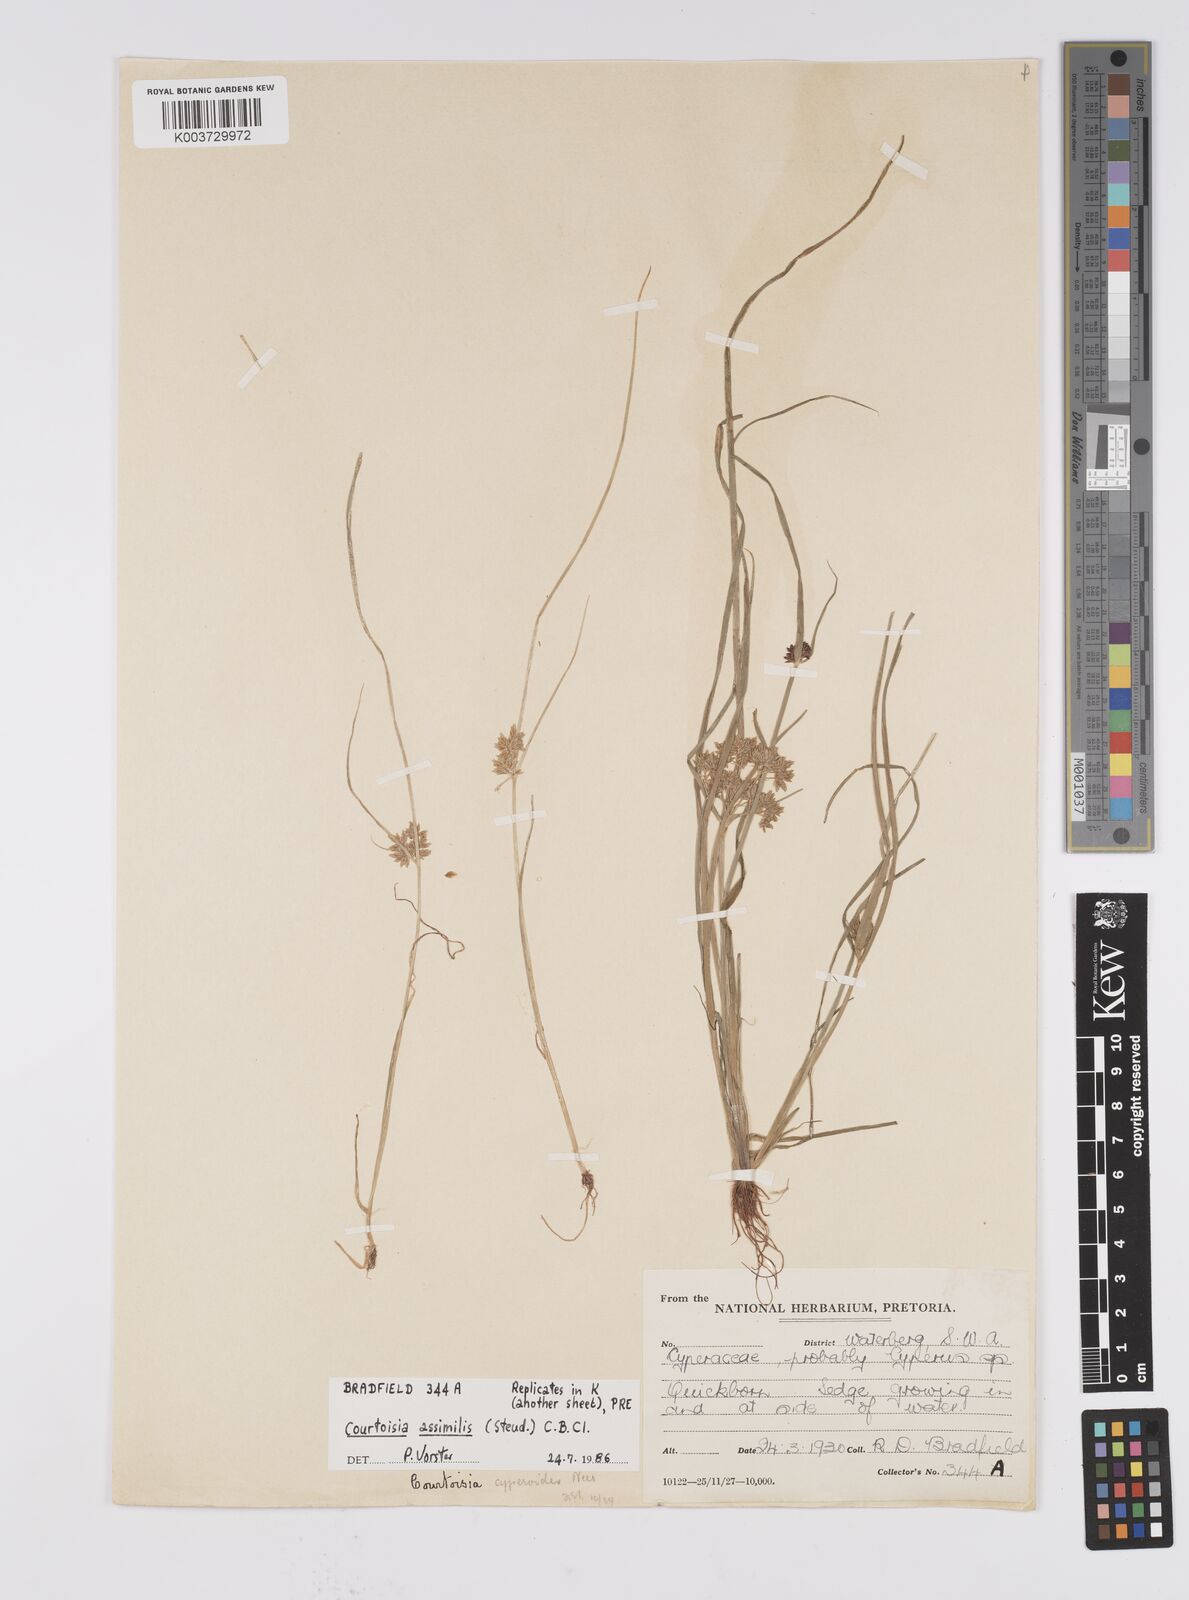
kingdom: Plantae
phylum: Tracheophyta
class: Liliopsida
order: Poales
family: Cyperaceae
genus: Cyperus
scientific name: Cyperus assimilis
